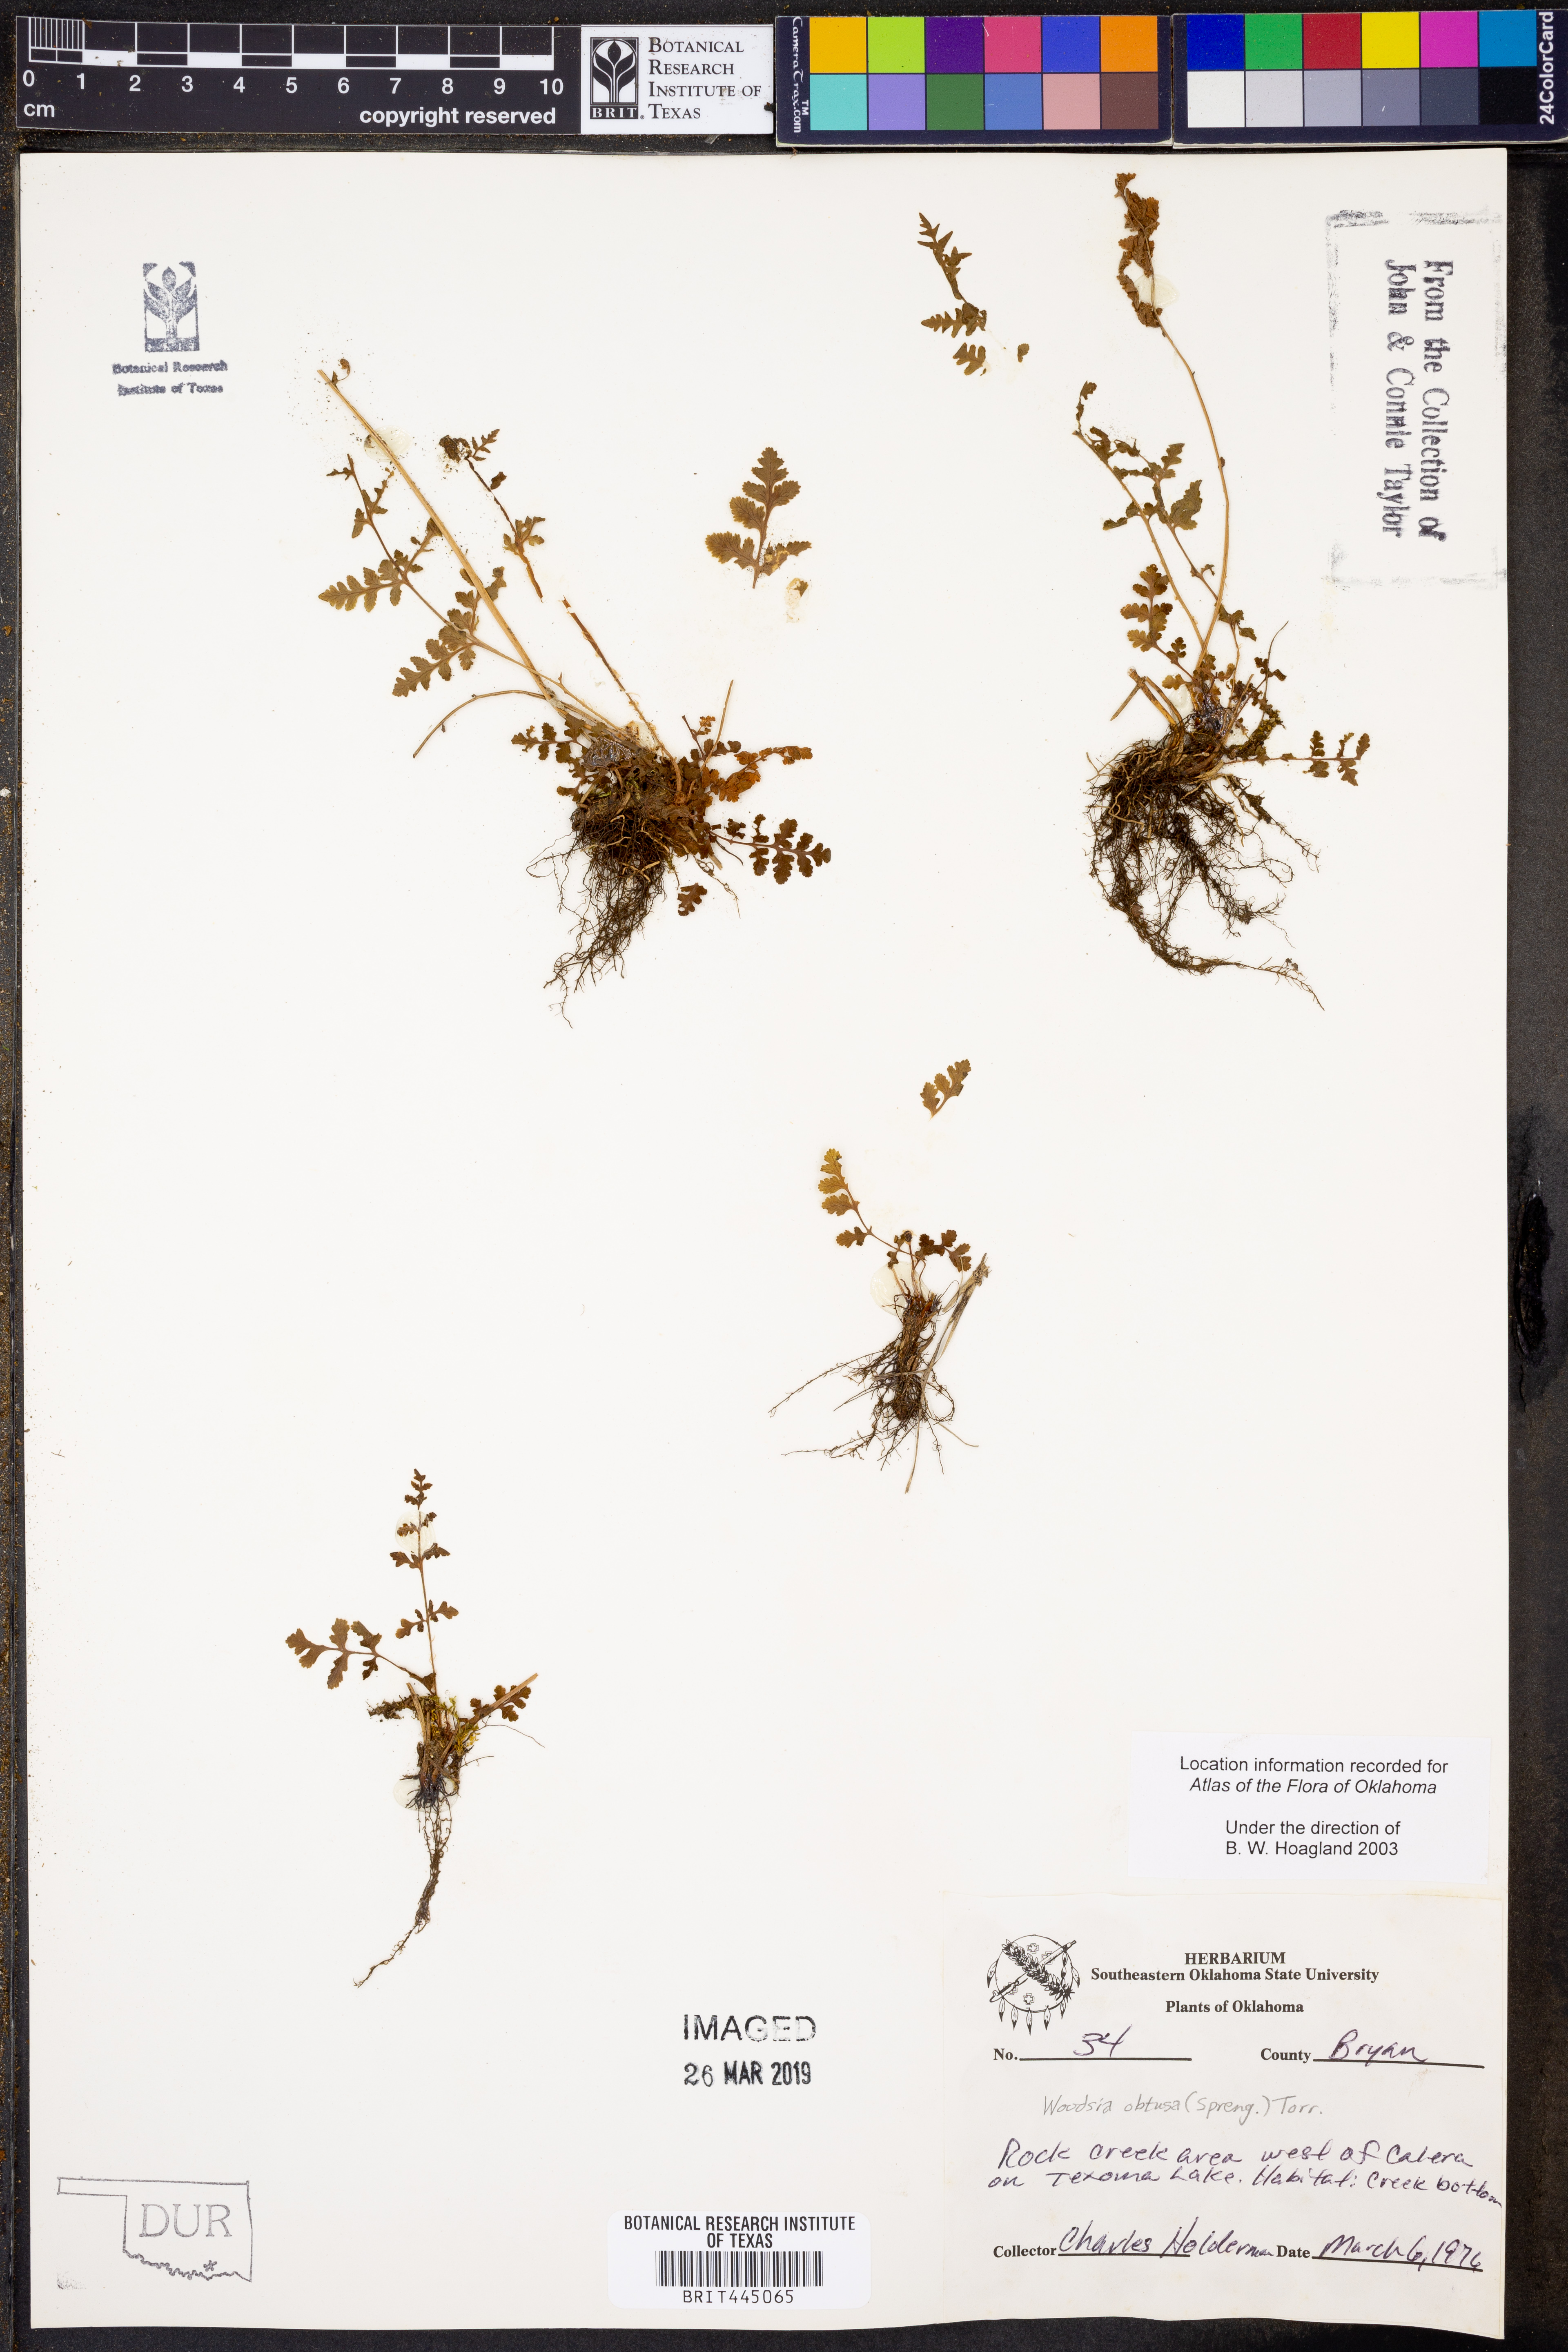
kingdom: Plantae
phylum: Tracheophyta
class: Polypodiopsida
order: Polypodiales
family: Woodsiaceae
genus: Physematium
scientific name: Physematium obtusum
